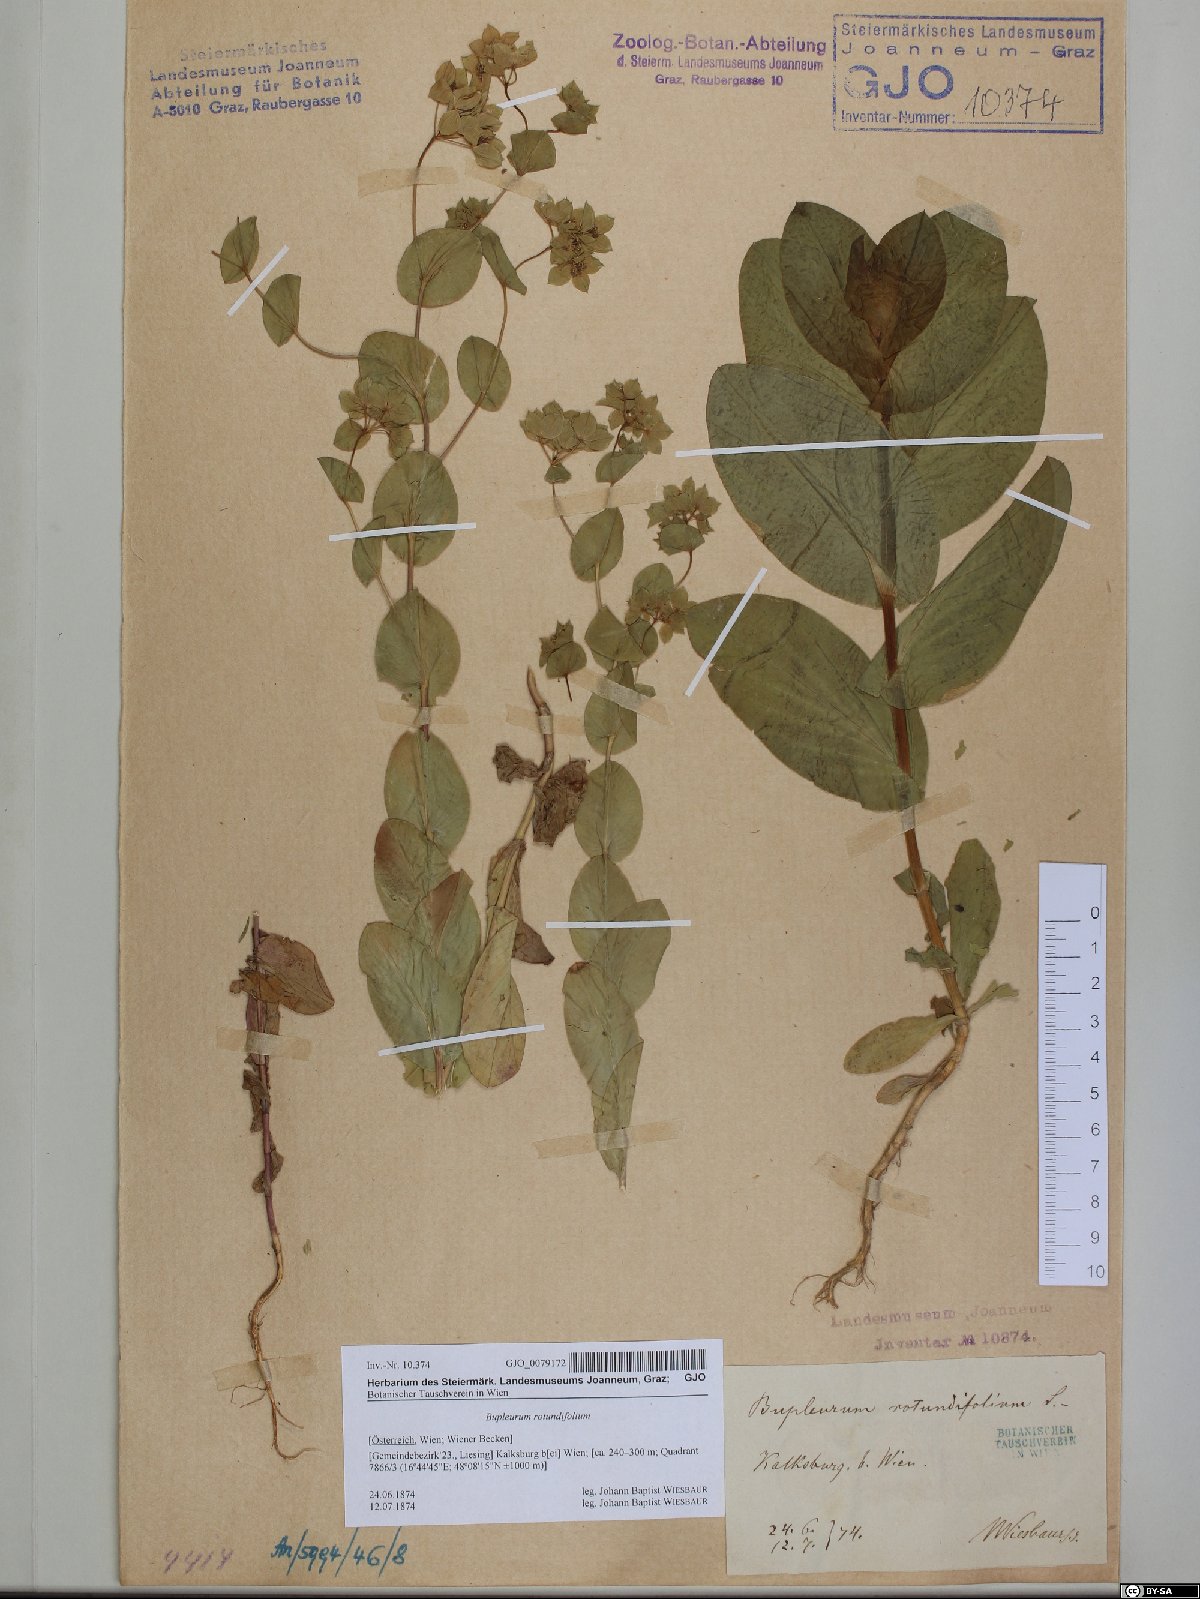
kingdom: Plantae
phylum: Tracheophyta
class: Magnoliopsida
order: Apiales
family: Apiaceae
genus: Bupleurum
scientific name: Bupleurum rotundifolium
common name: Thorow-wax
